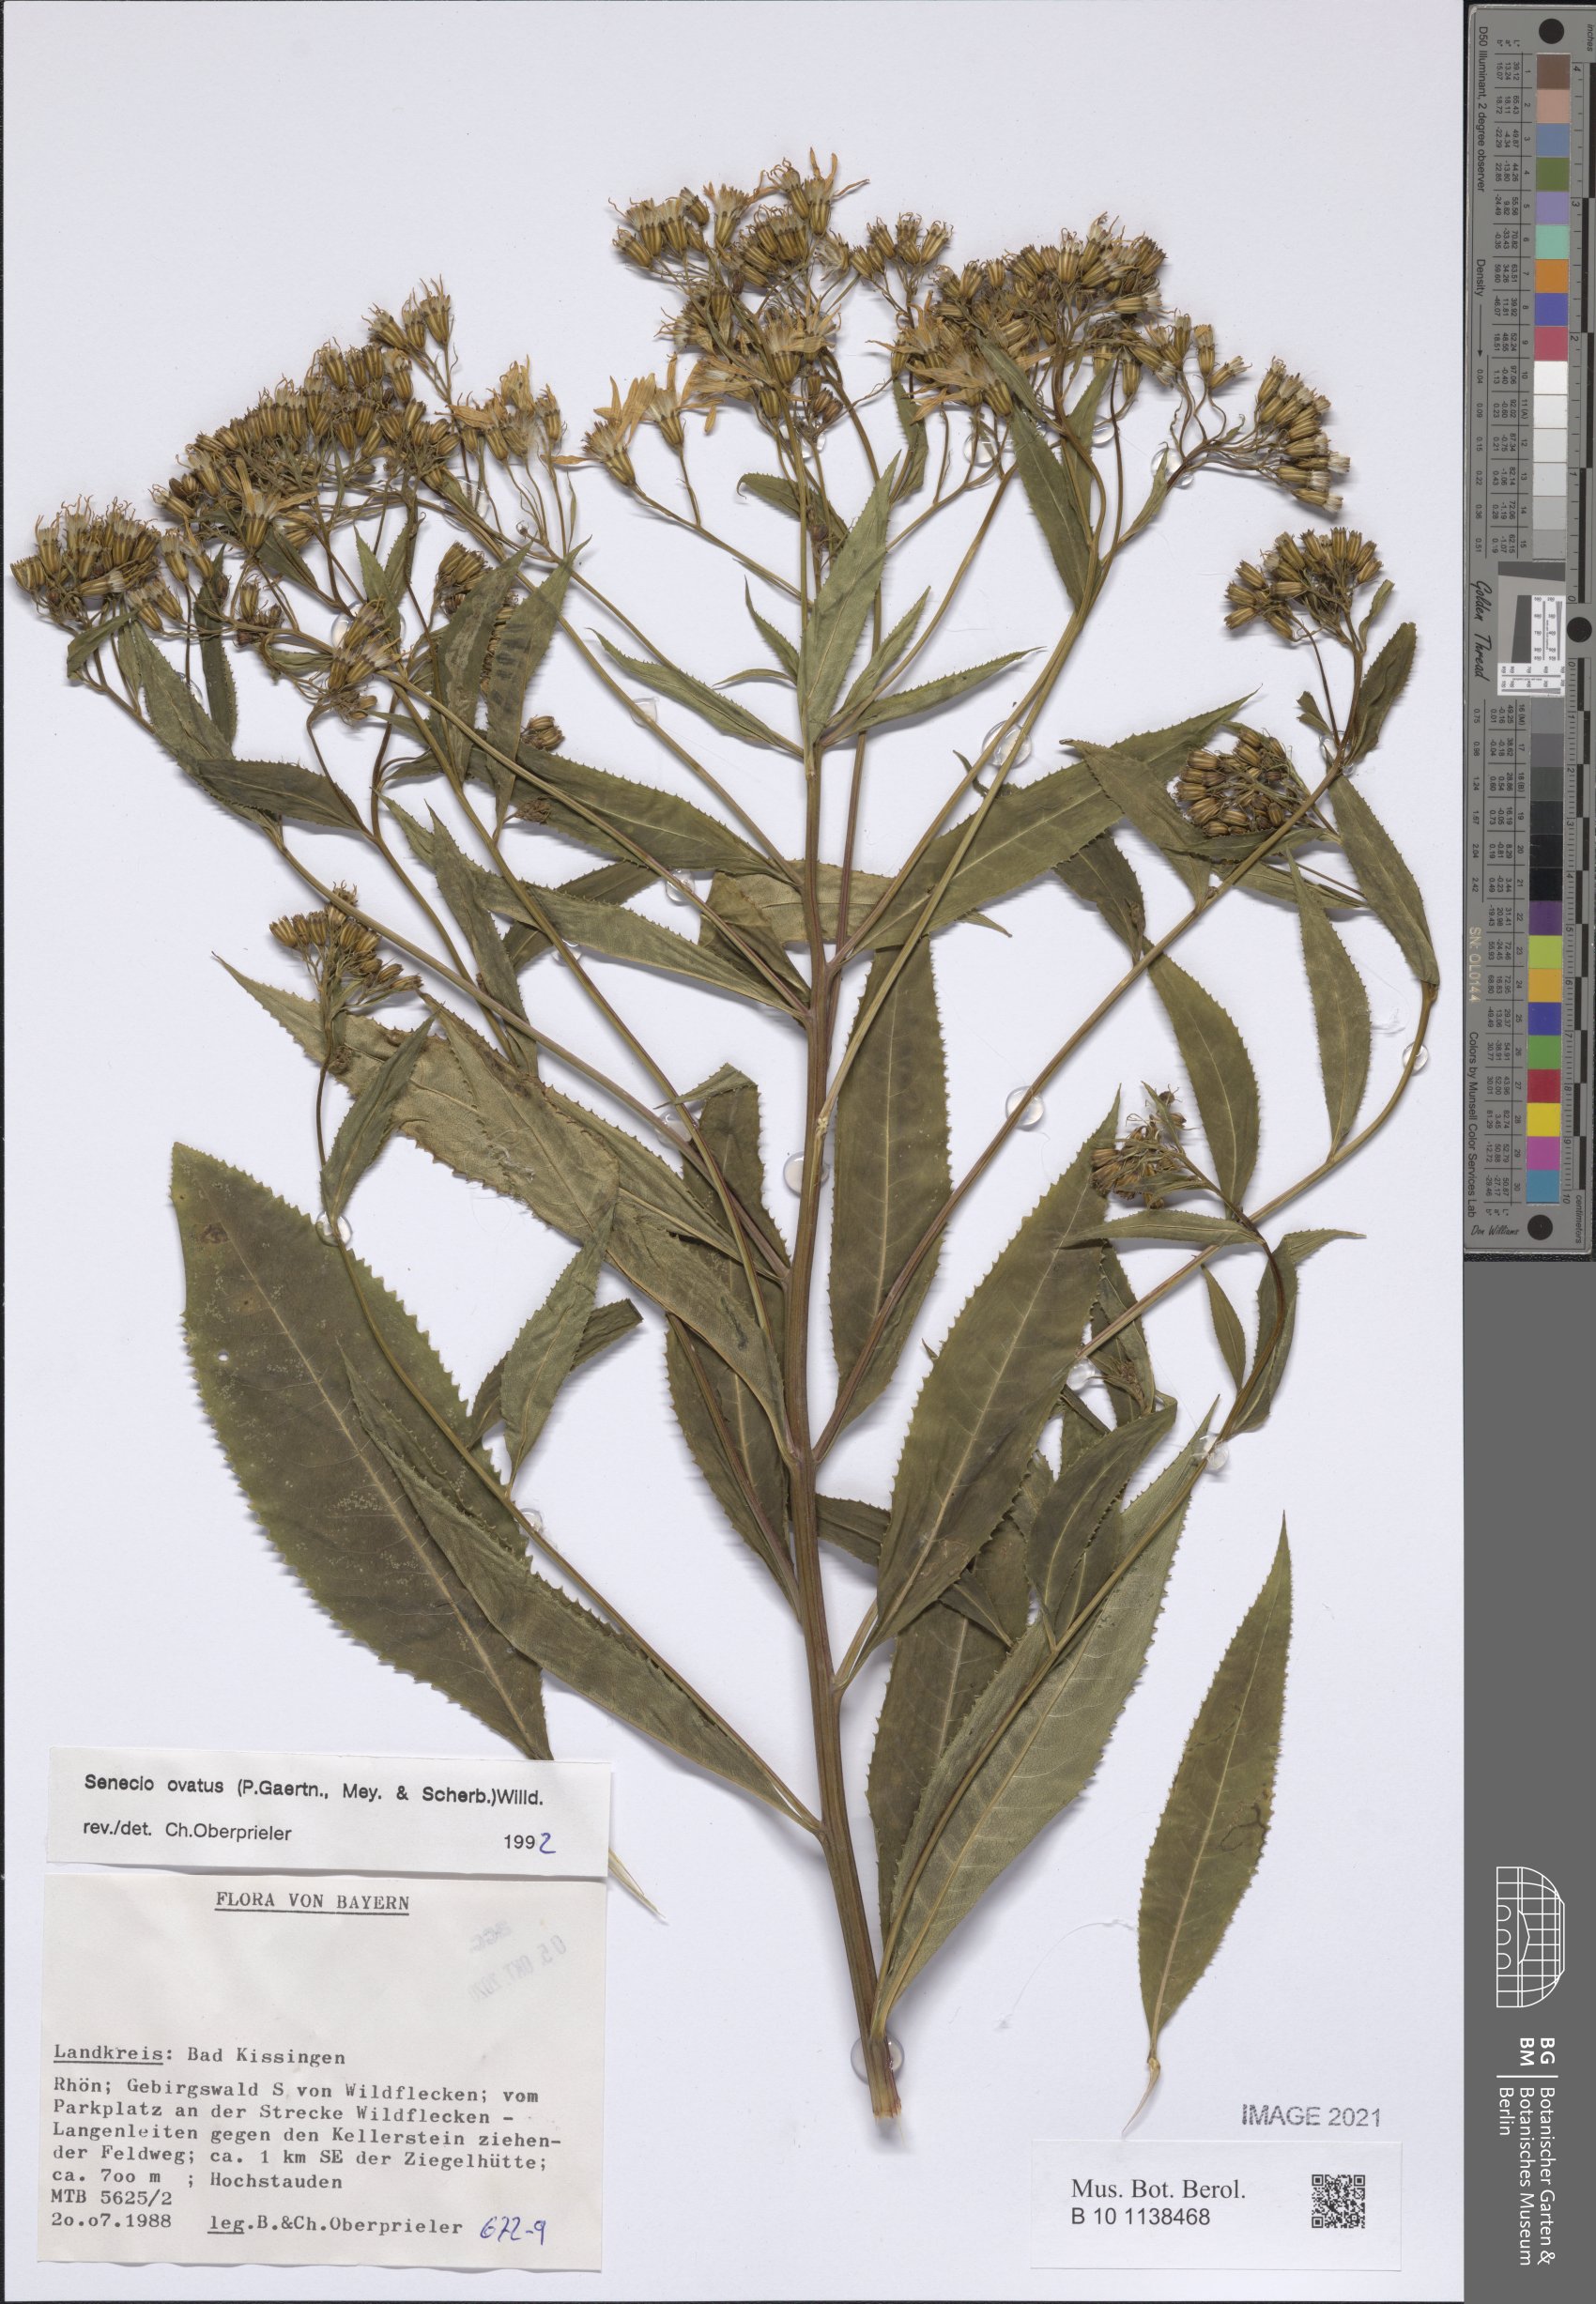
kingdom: Plantae
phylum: Tracheophyta
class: Magnoliopsida
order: Asterales
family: Asteraceae
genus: Senecio
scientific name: Senecio ovatus
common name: Wood ragwort
